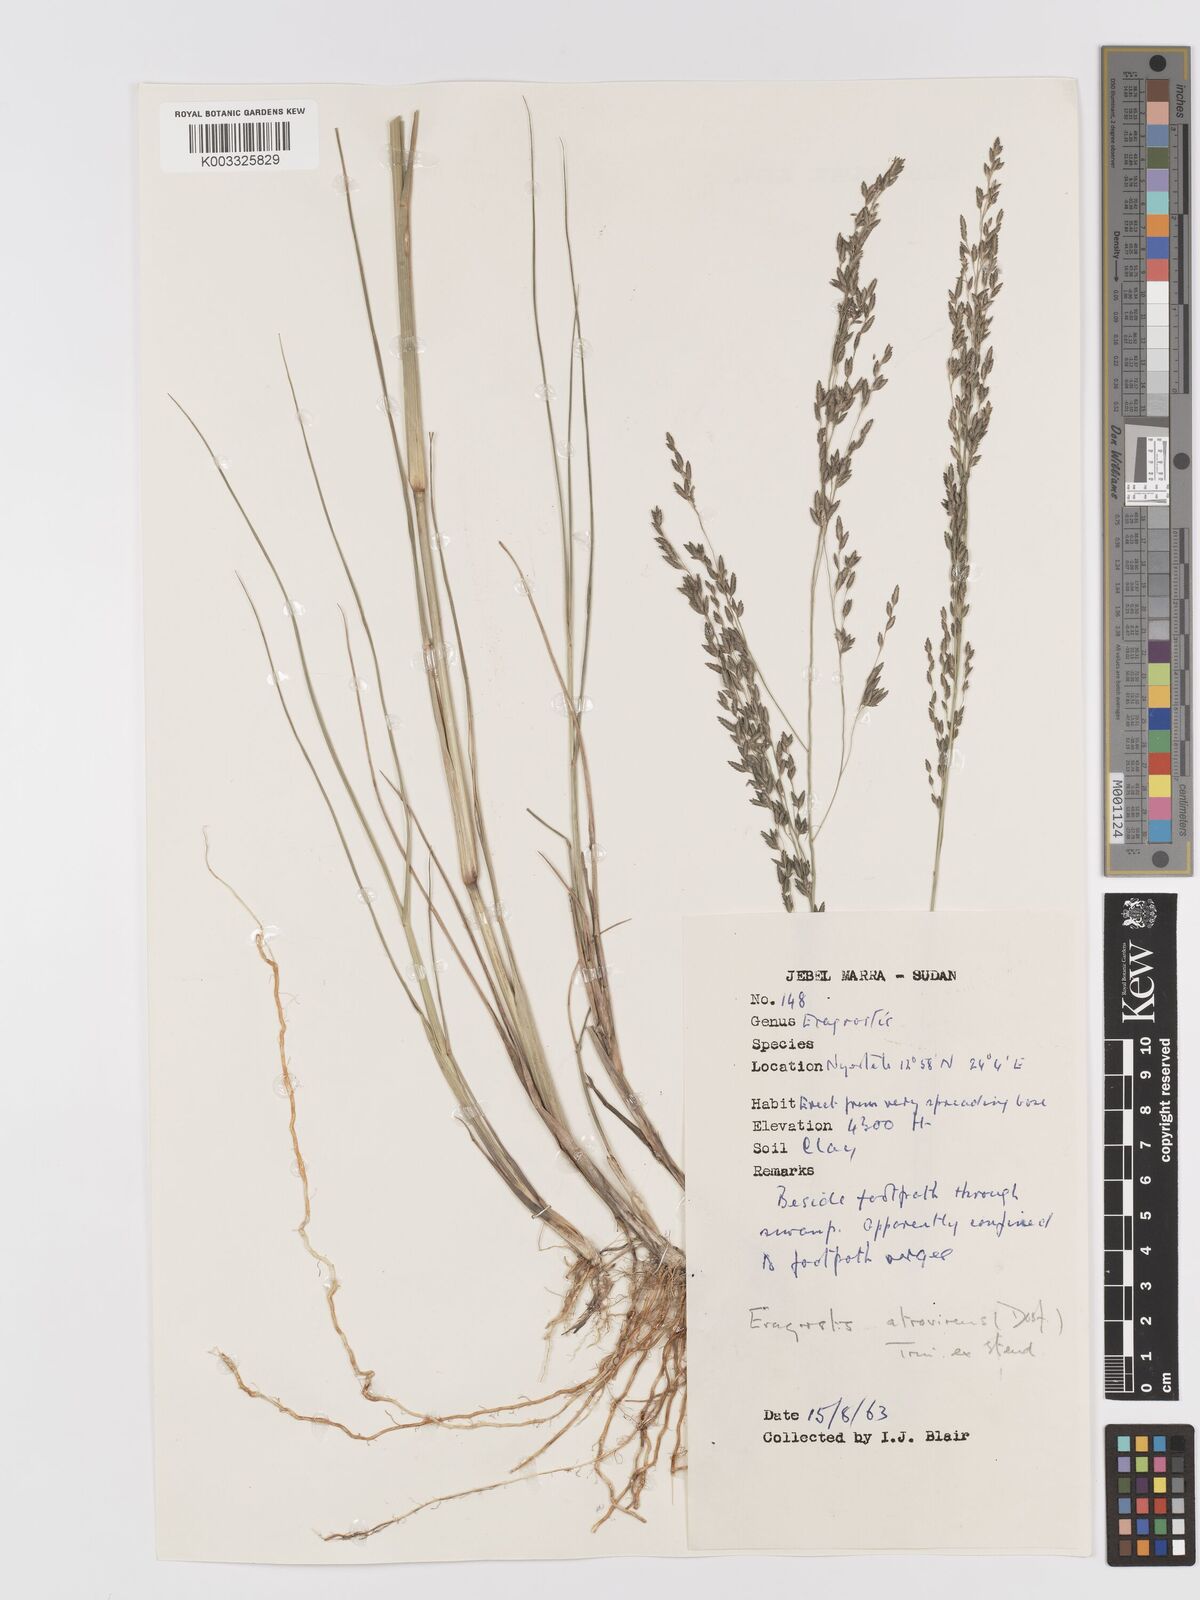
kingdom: Plantae
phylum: Tracheophyta
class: Liliopsida
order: Poales
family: Poaceae
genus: Eragrostis
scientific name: Eragrostis atrovirens
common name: Thalia lovegrass
